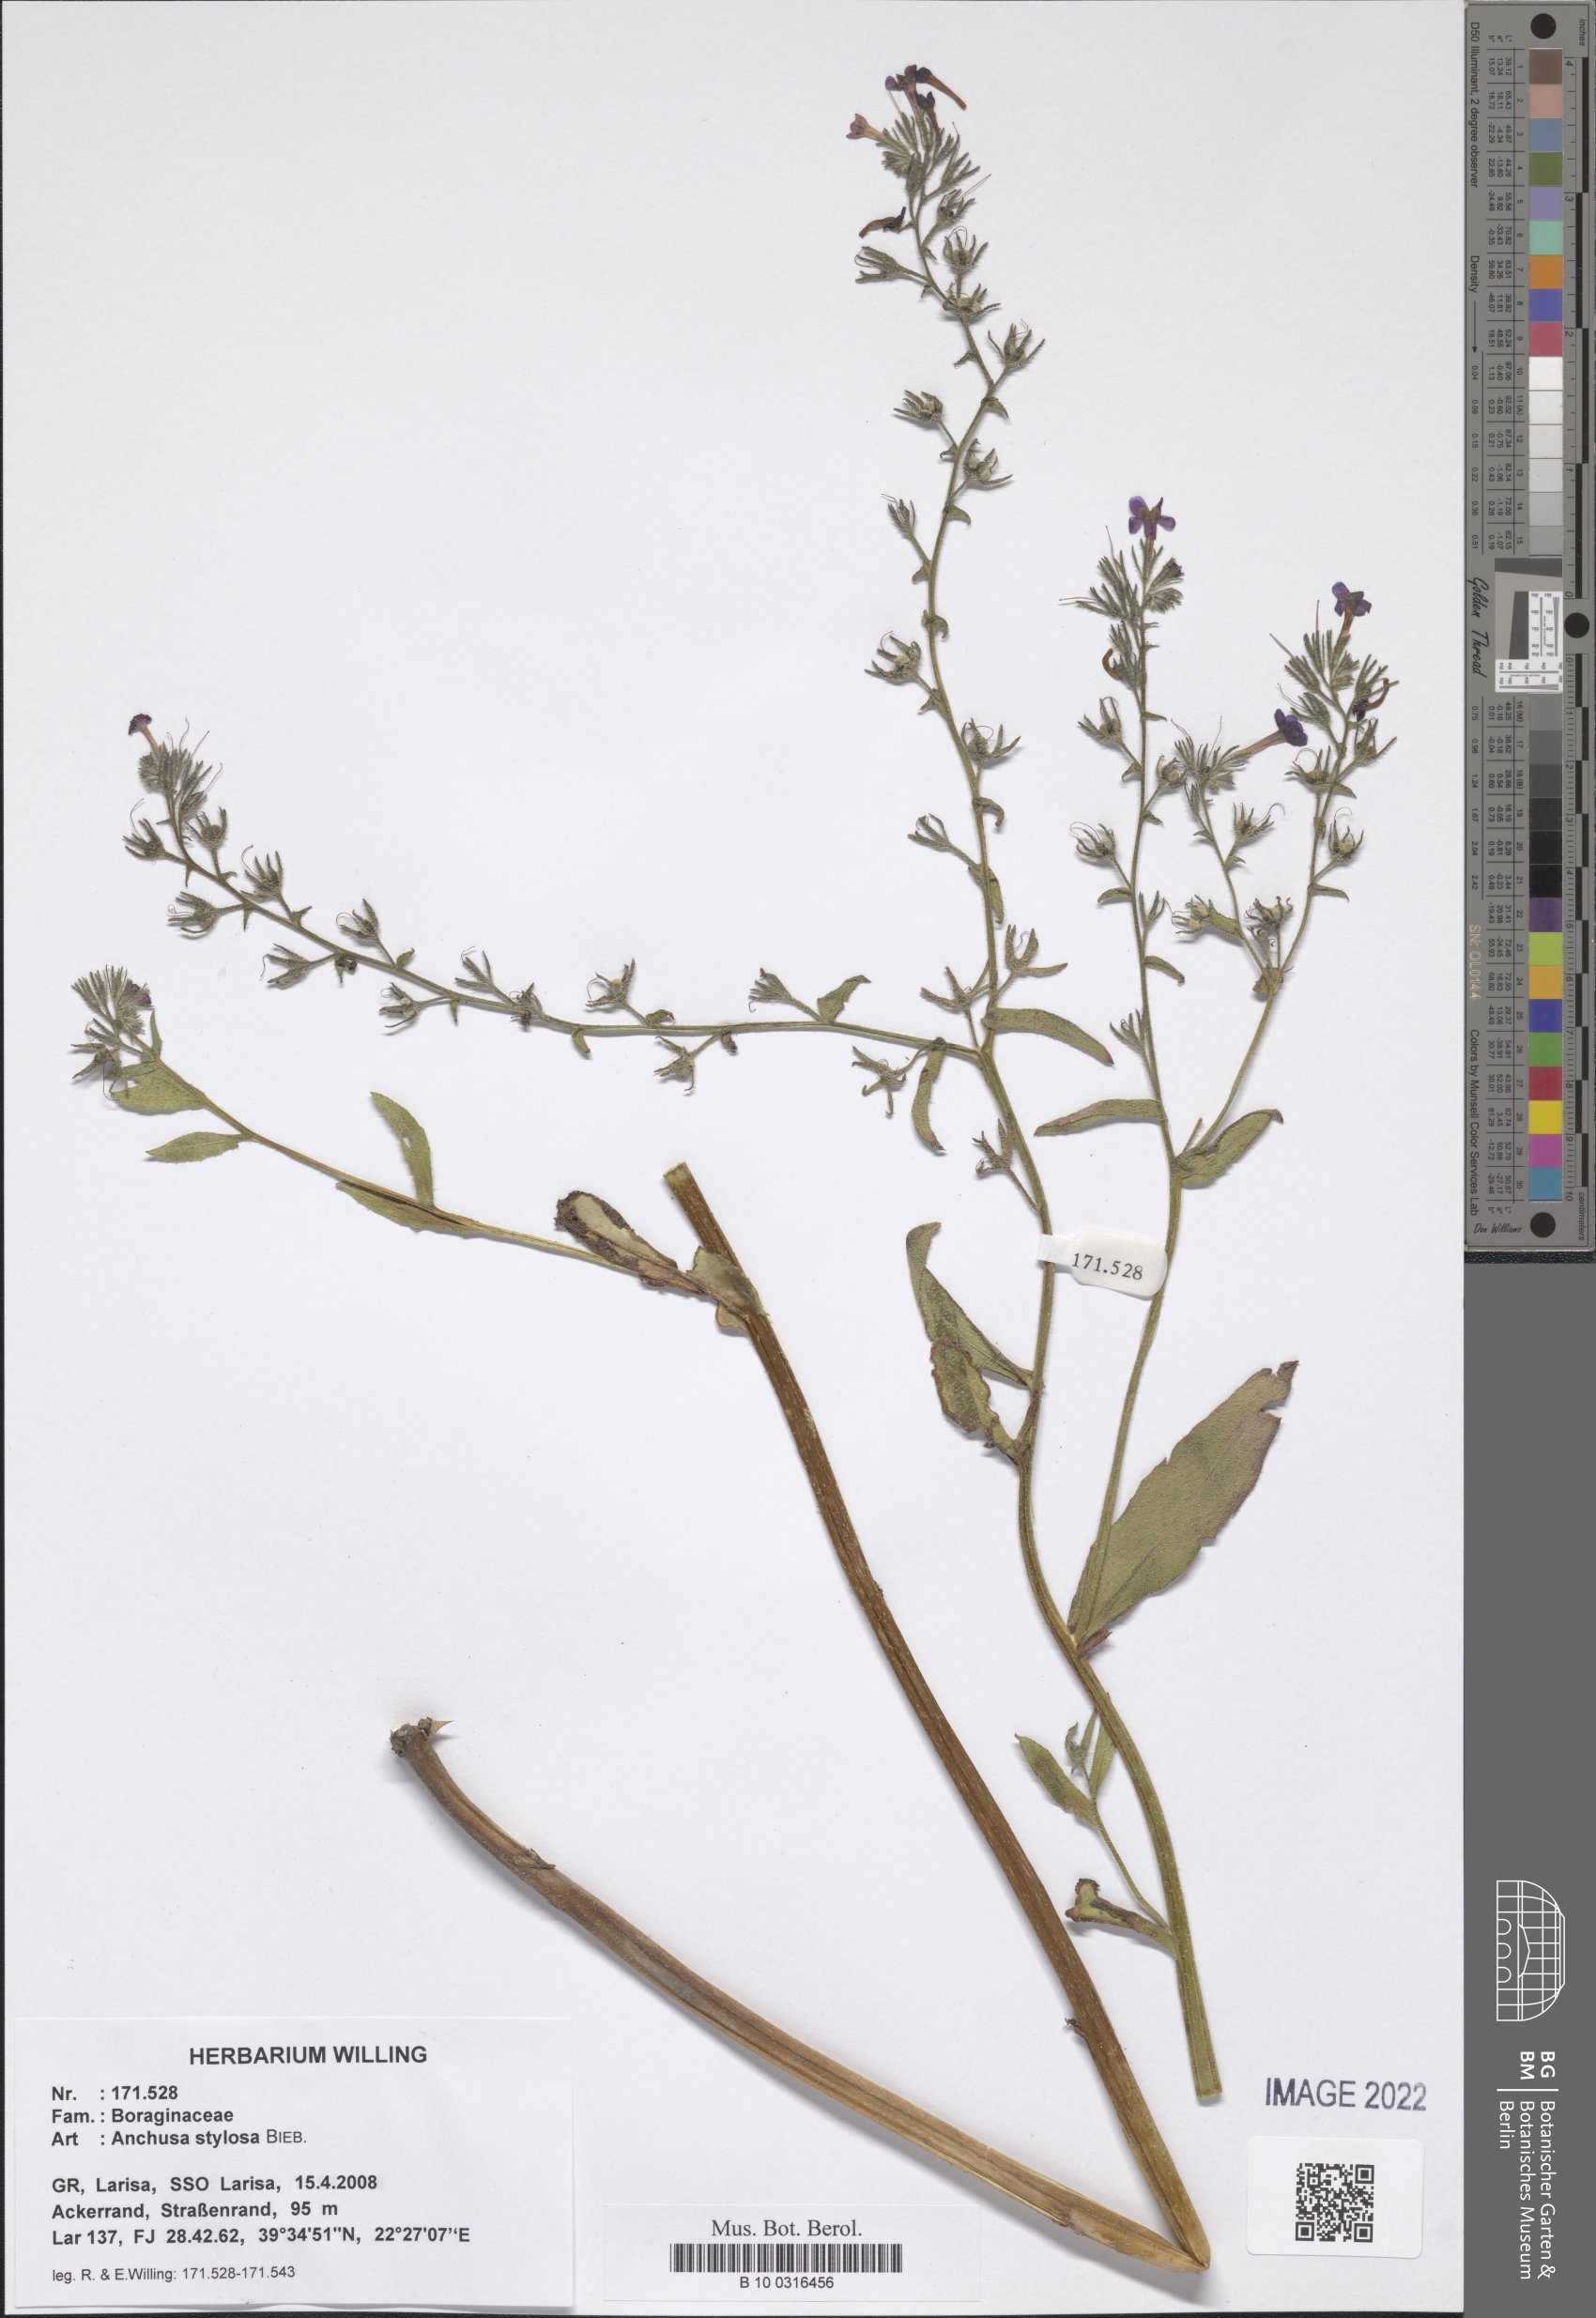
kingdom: Plantae
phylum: Tracheophyta
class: Magnoliopsida
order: Boraginales
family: Boraginaceae
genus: Anchusa
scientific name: Anchusa stylosa
